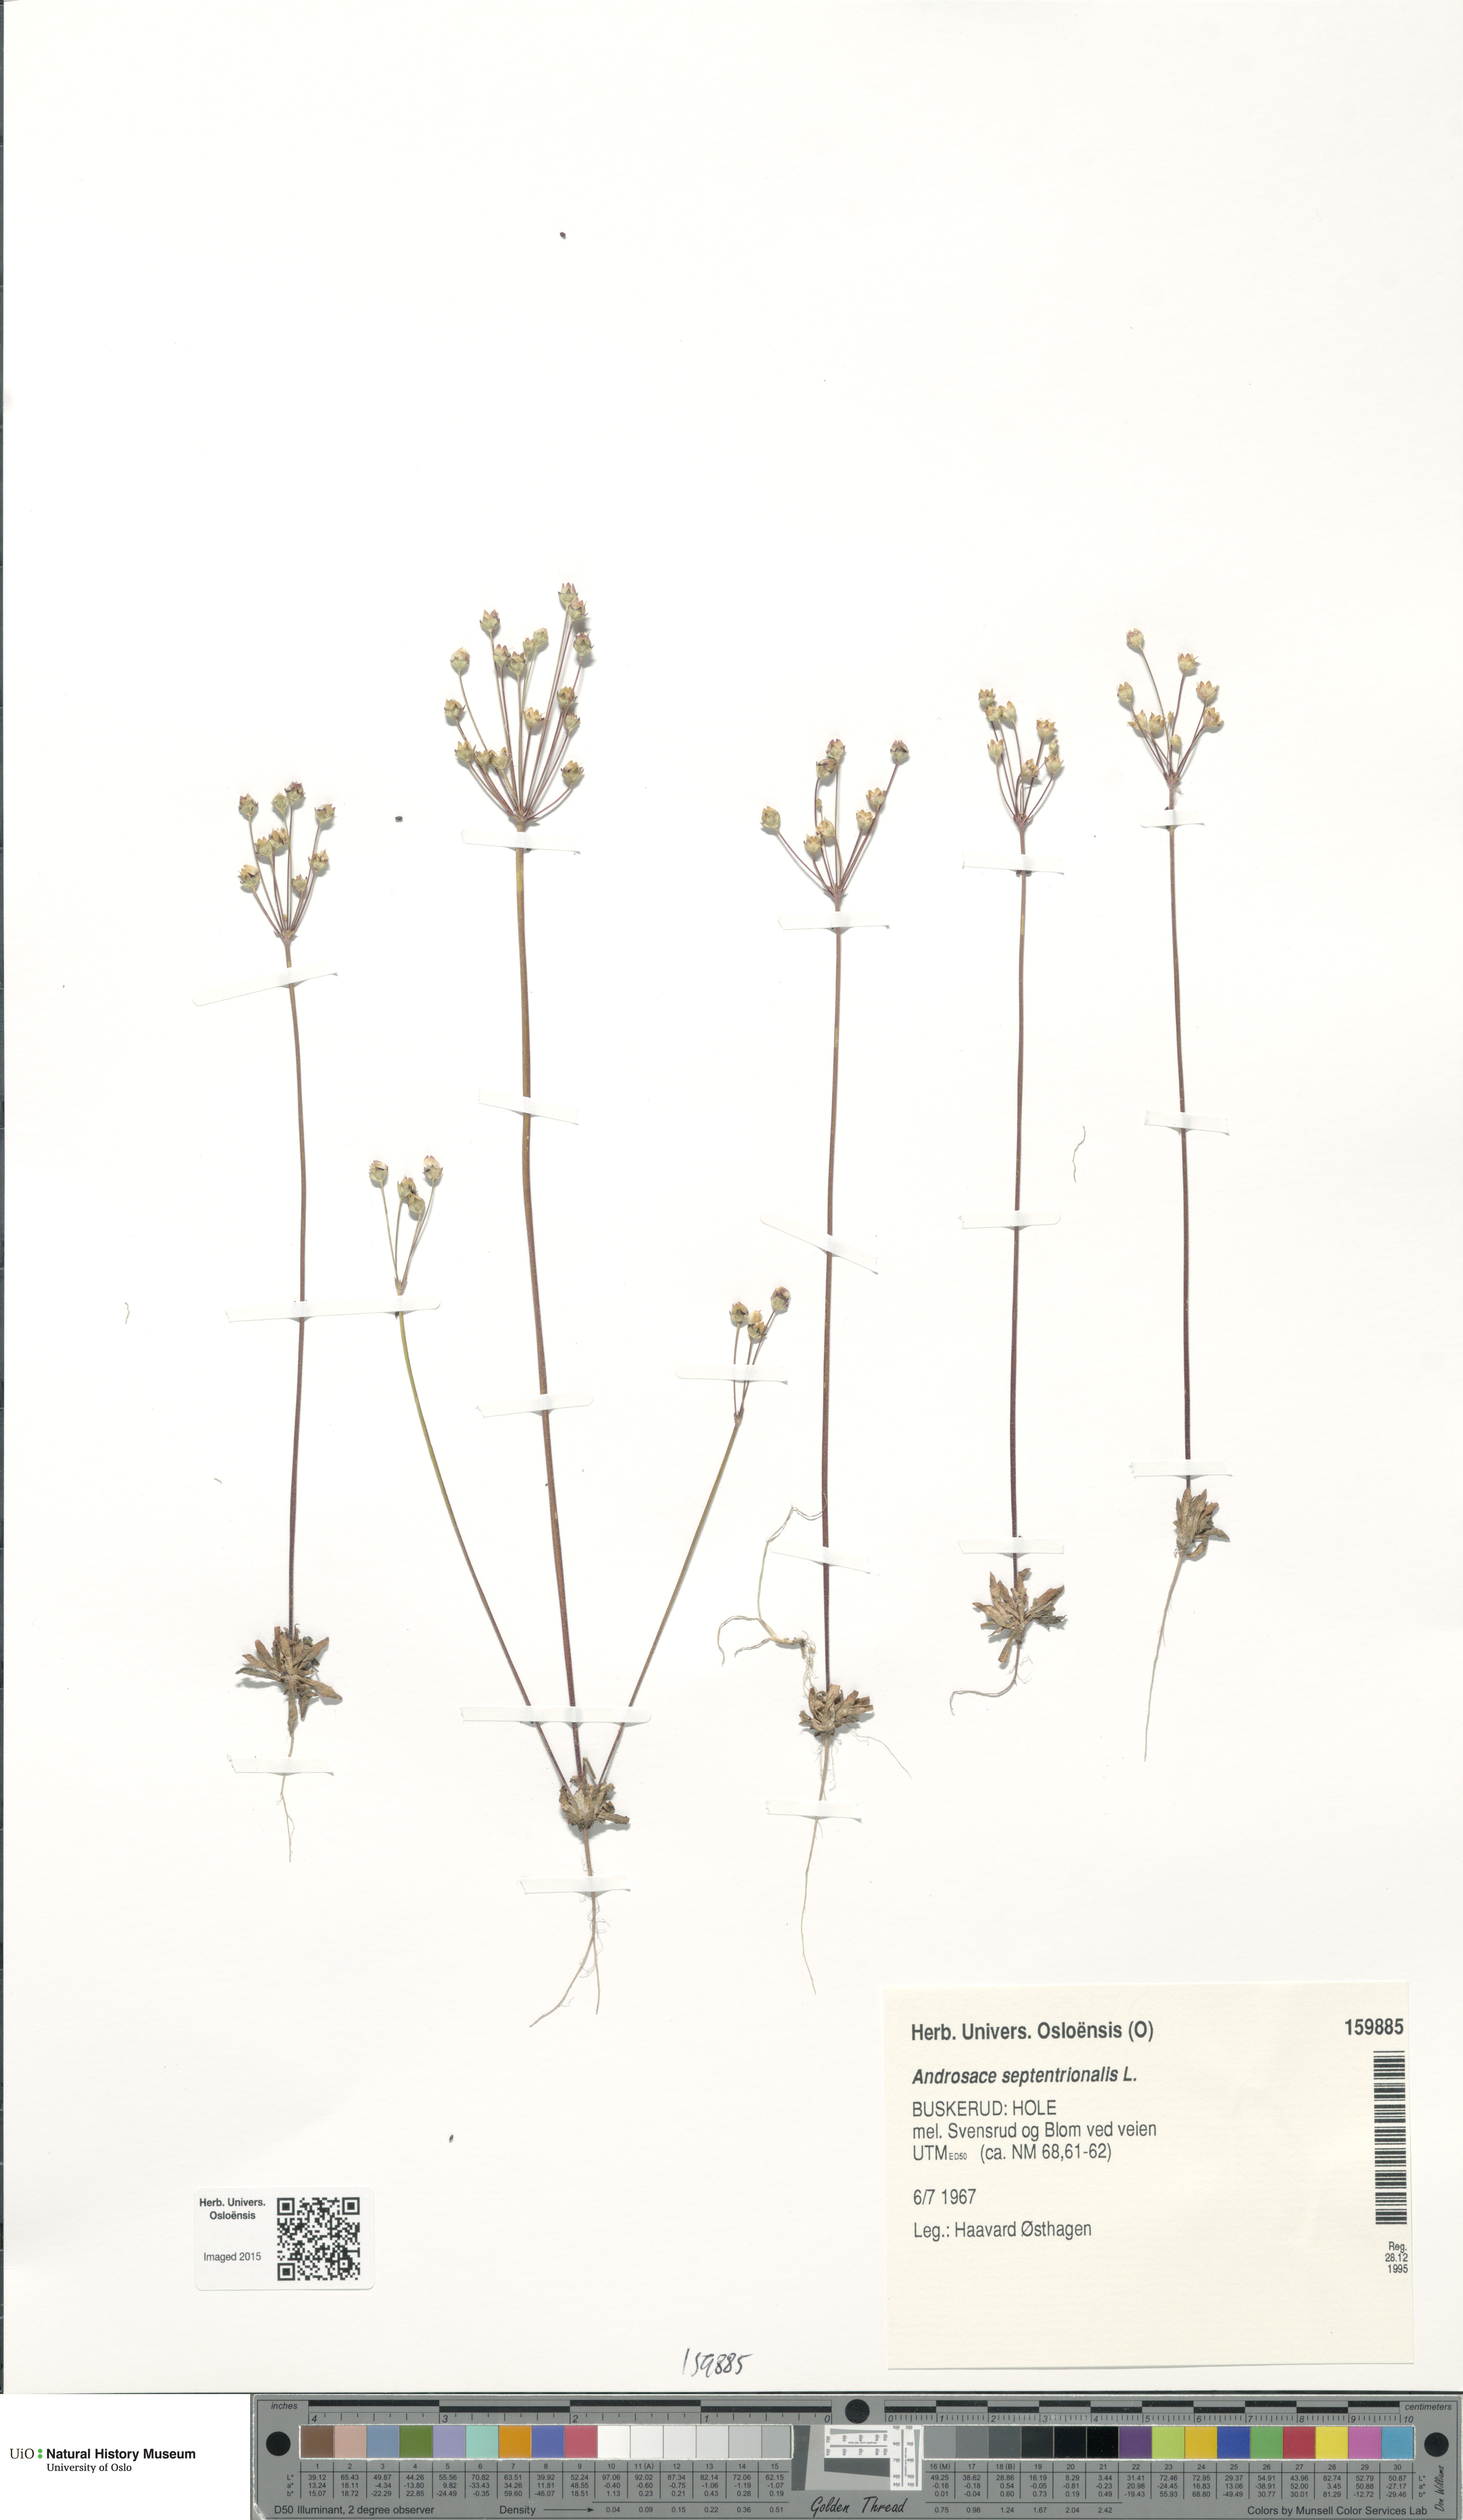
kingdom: Plantae
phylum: Tracheophyta
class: Magnoliopsida
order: Ericales
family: Primulaceae
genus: Androsace
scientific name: Androsace septentrionalis
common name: Hairy northern fairy-candelabra
